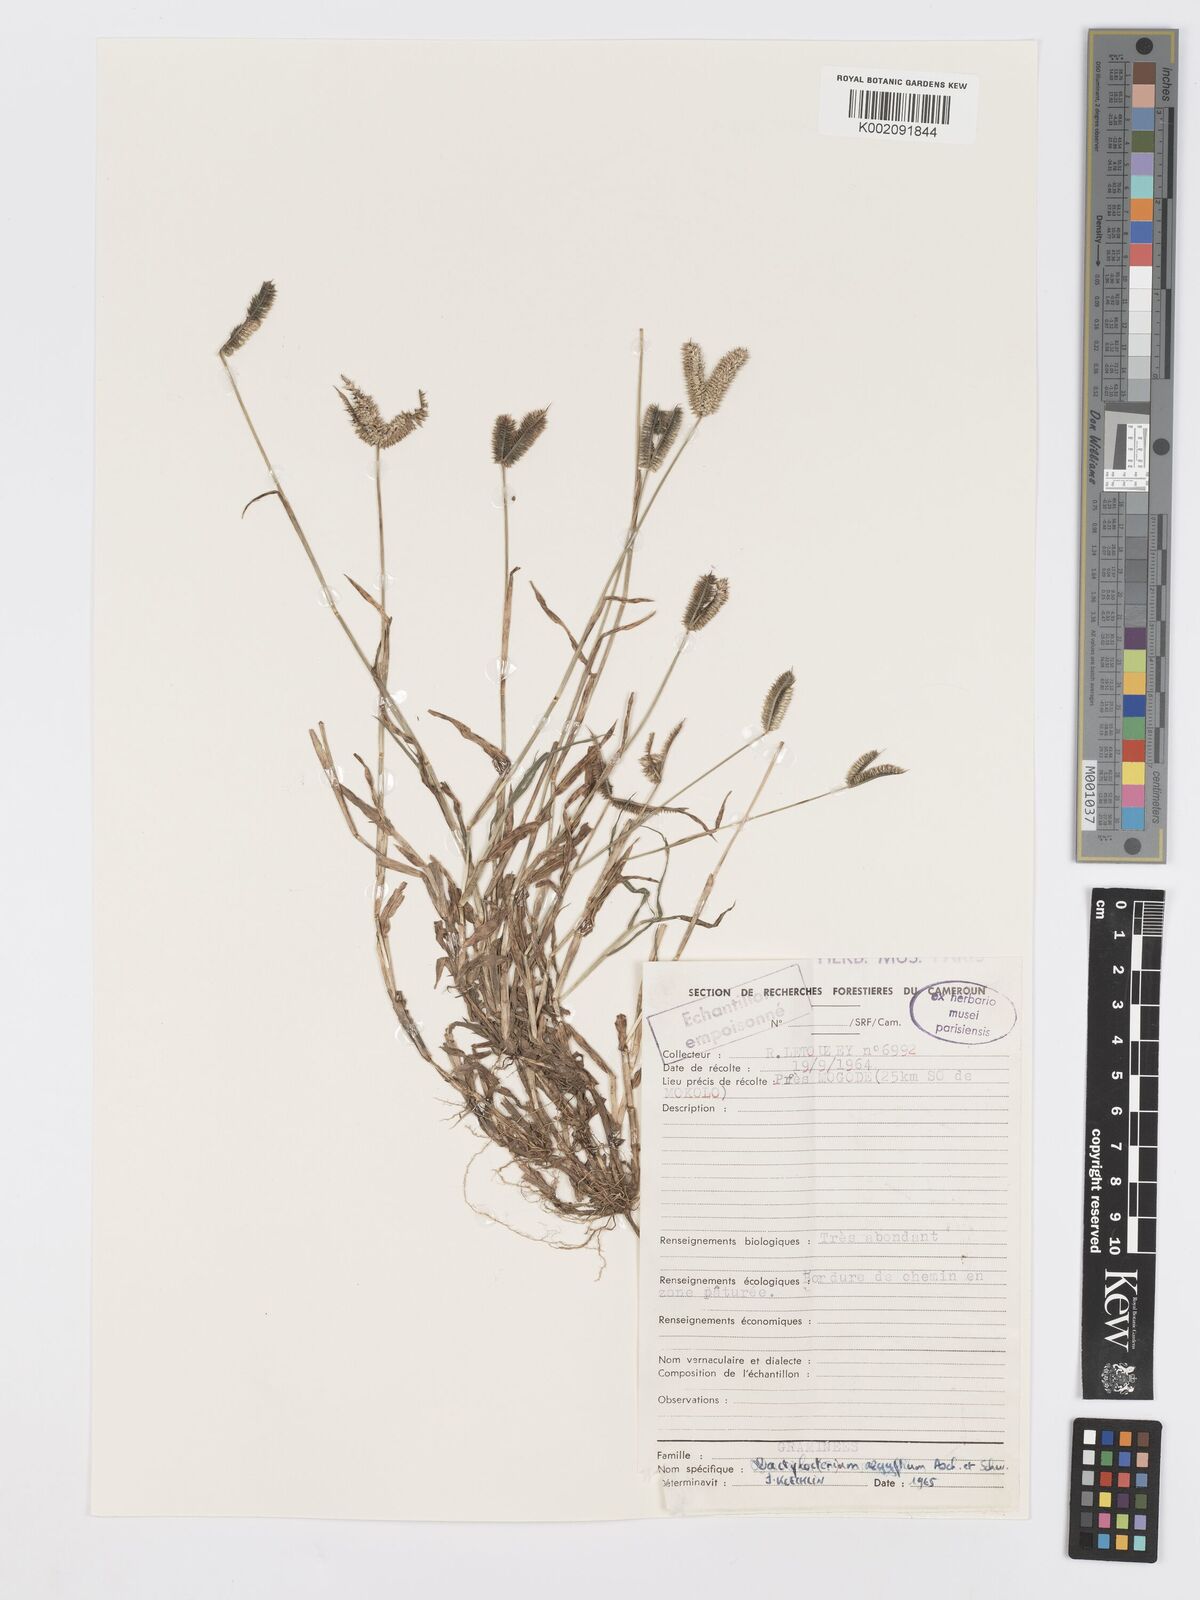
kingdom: Plantae
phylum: Tracheophyta
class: Liliopsida
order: Poales
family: Poaceae
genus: Dactyloctenium
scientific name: Dactyloctenium aegyptium
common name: Egyptian grass
